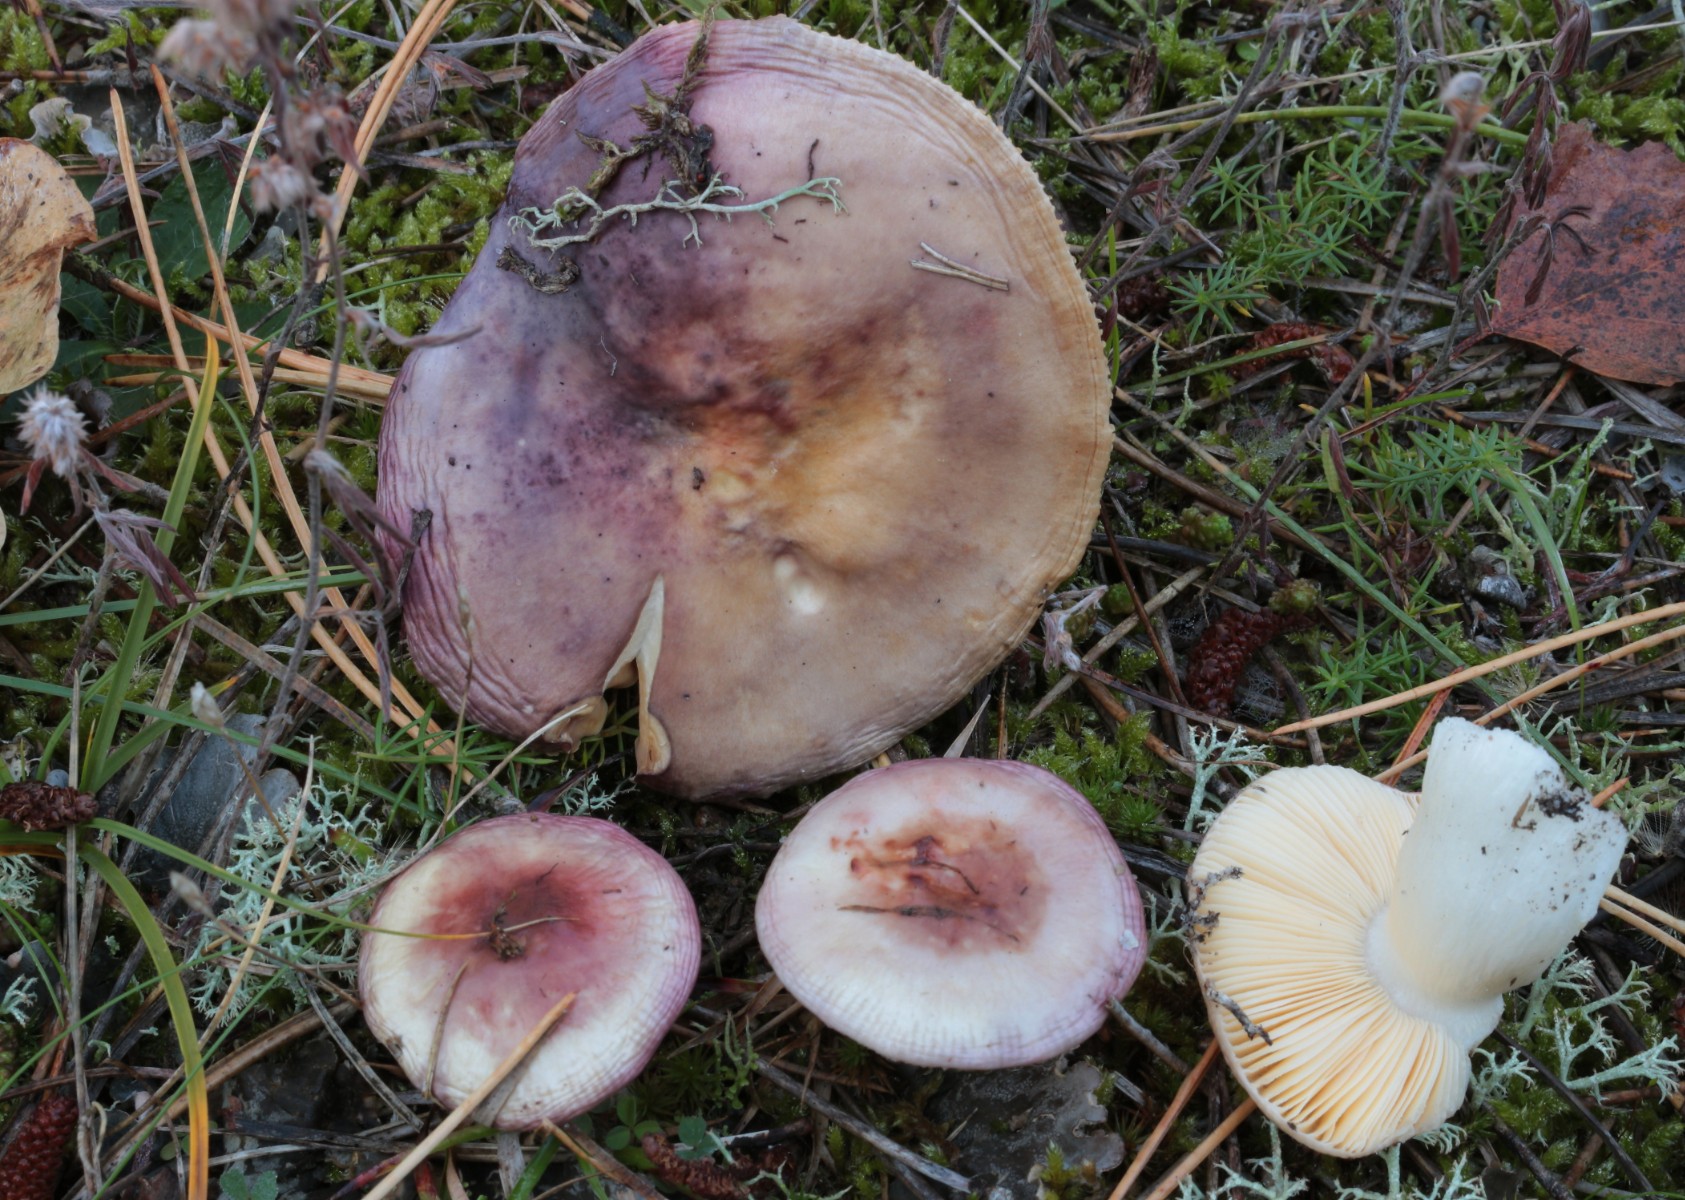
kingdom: Fungi
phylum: Basidiomycota
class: Agaricomycetes
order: Russulales
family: Russulaceae
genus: Russula
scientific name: Russula
